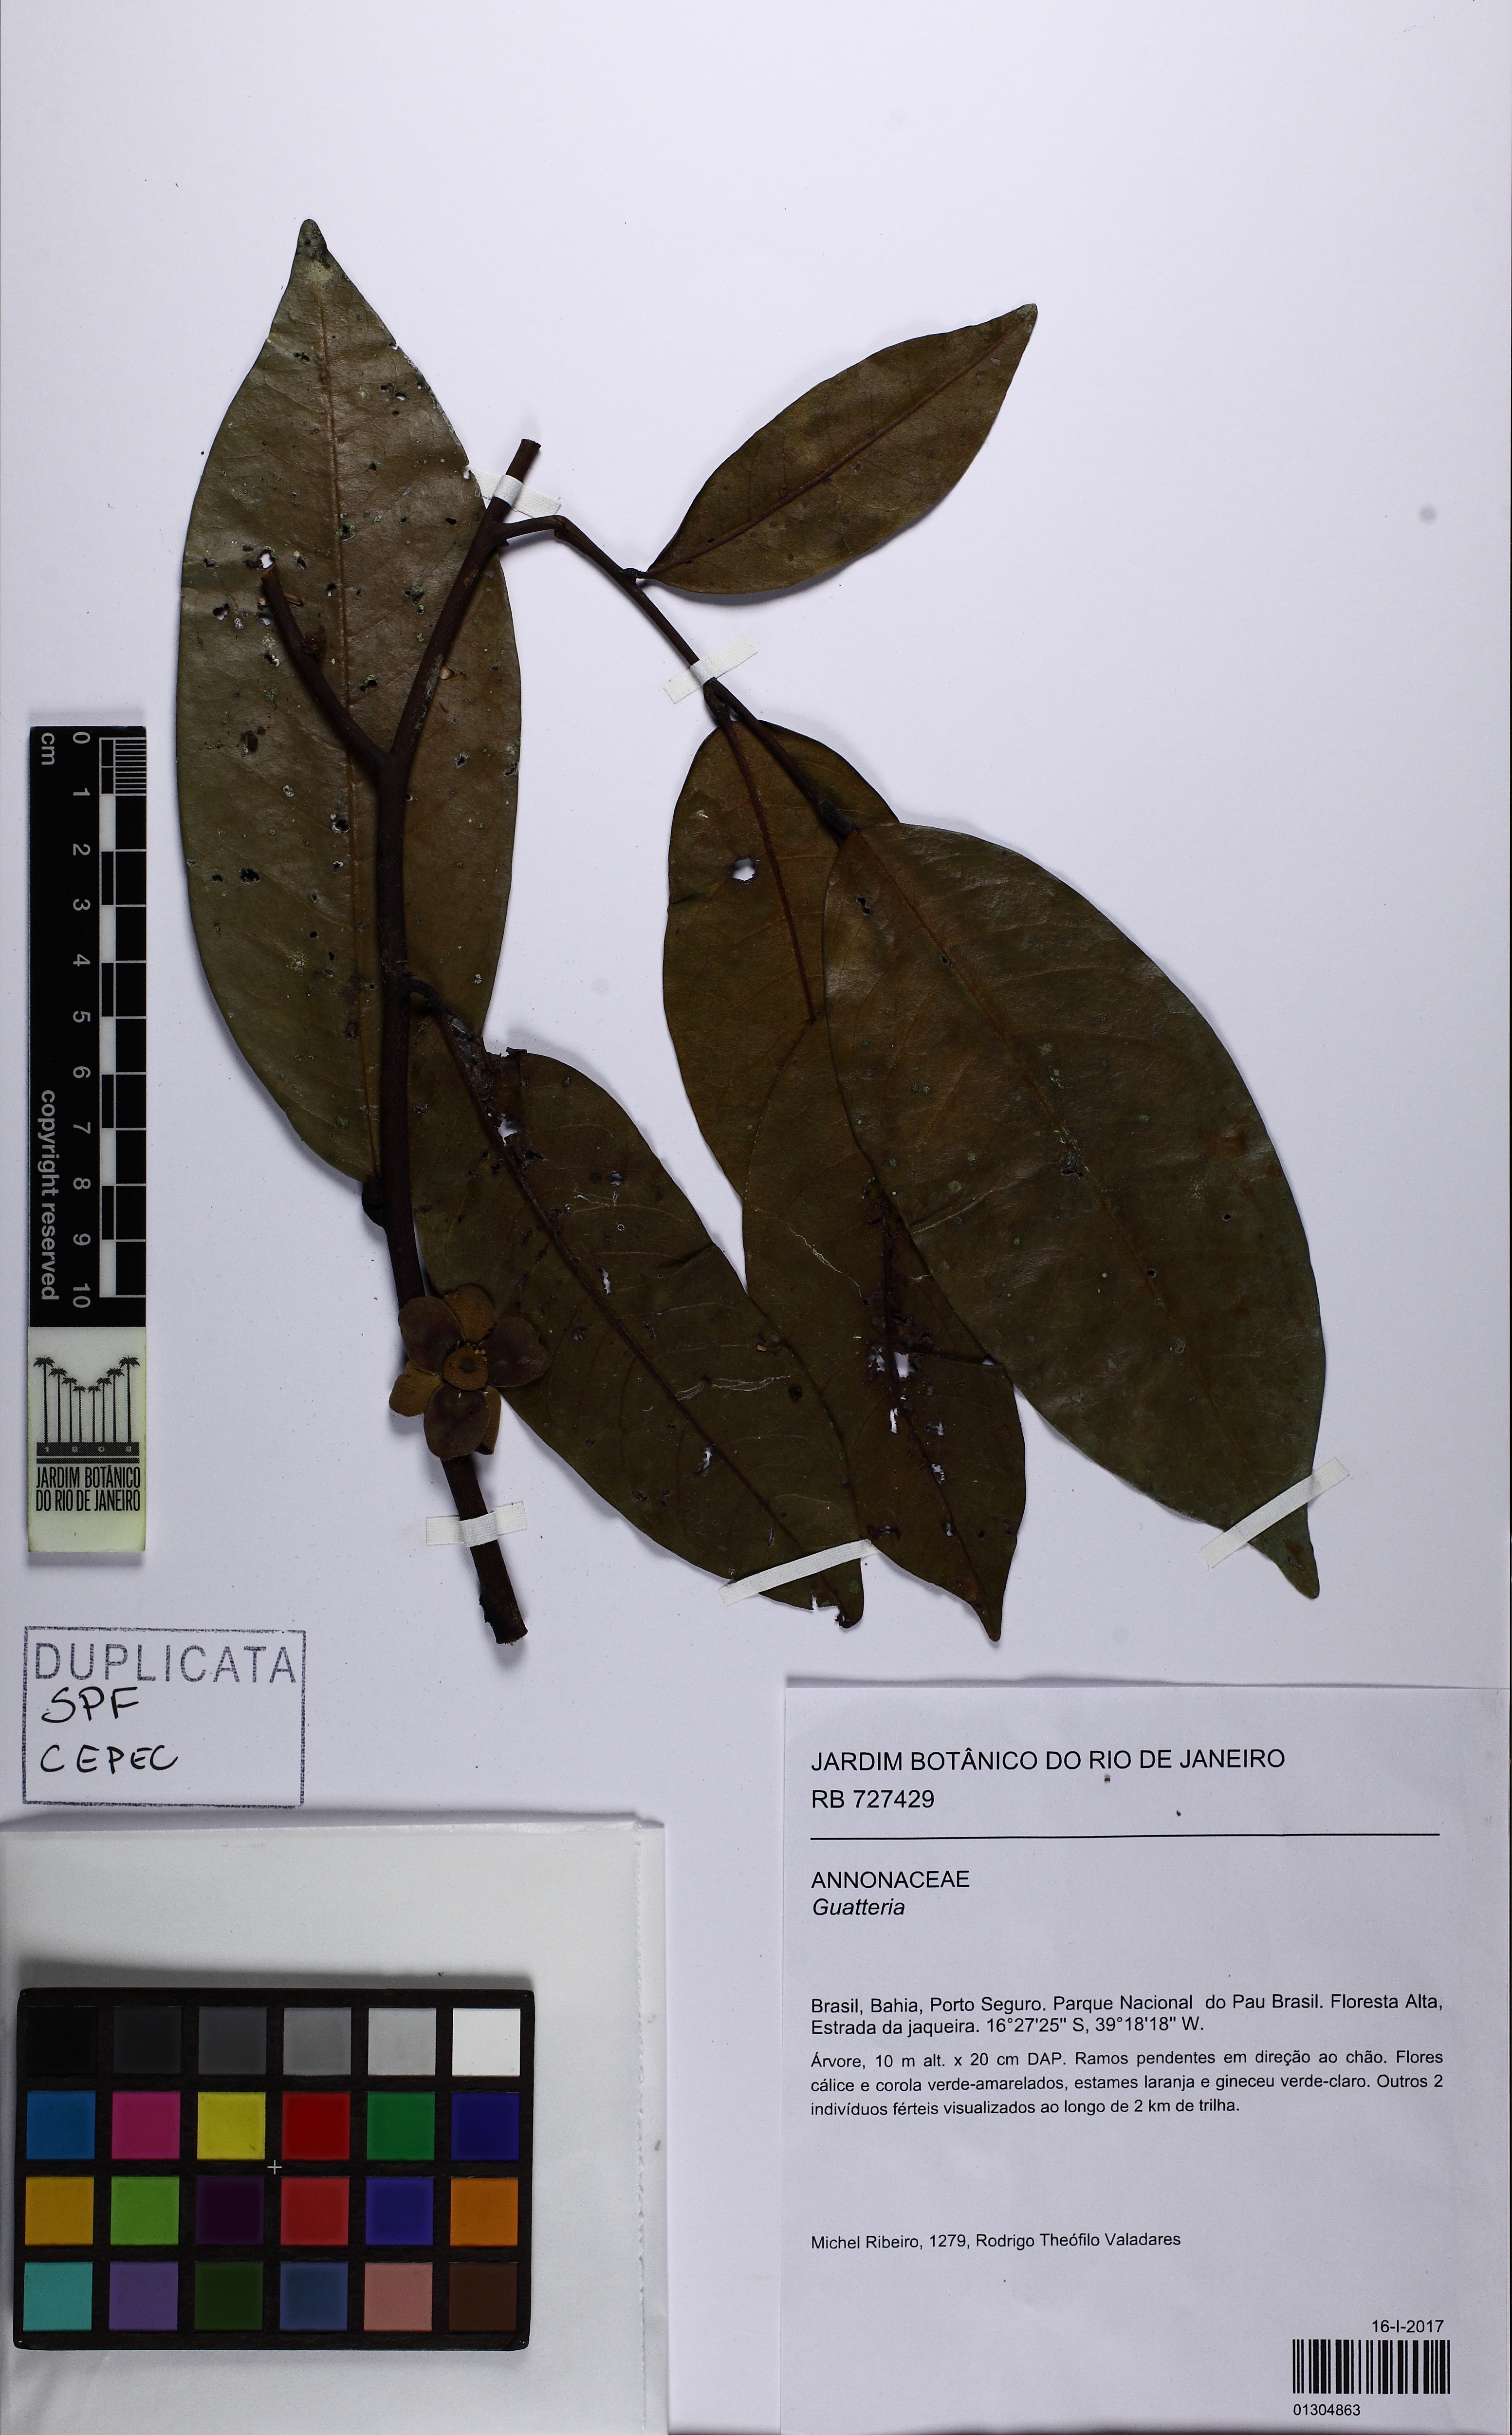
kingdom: Plantae
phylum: Tracheophyta
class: Magnoliopsida
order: Magnoliales
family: Annonaceae
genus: Guatteria
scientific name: Guatteria oligocarpa
